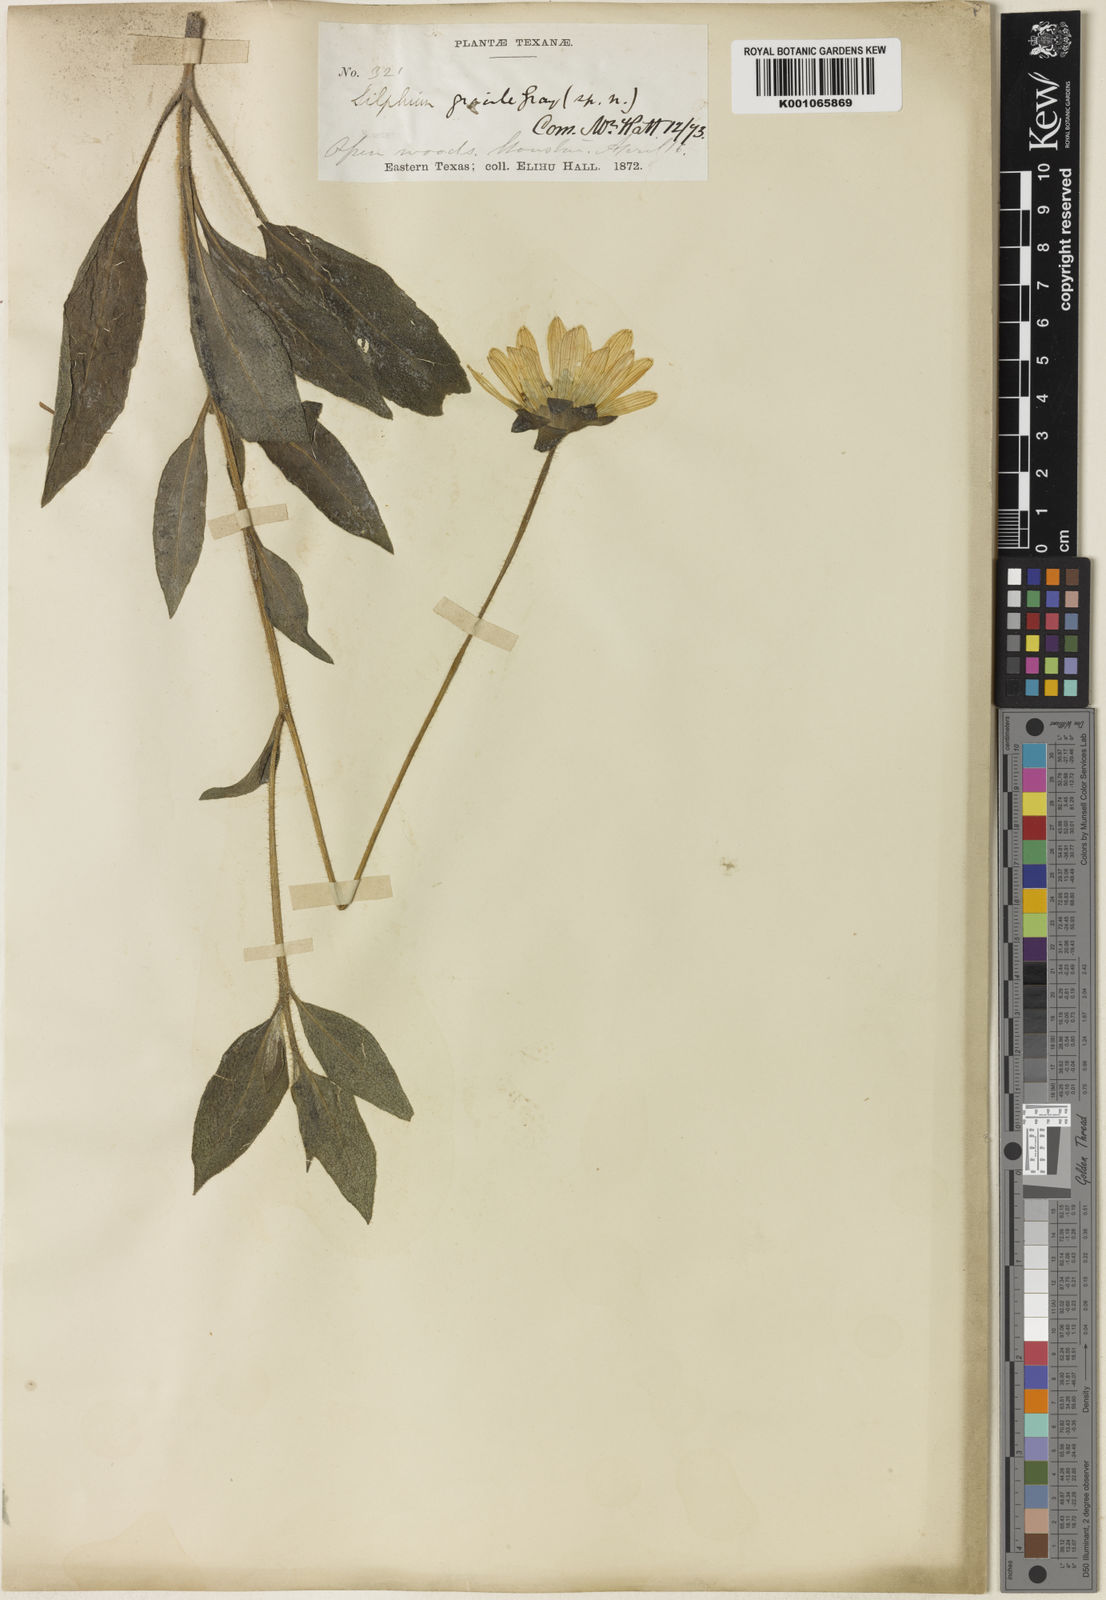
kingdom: Plantae
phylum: Tracheophyta
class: Magnoliopsida
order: Asterales
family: Asteraceae
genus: Silphium
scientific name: Silphium radula
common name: Roughleaf rosinweed
